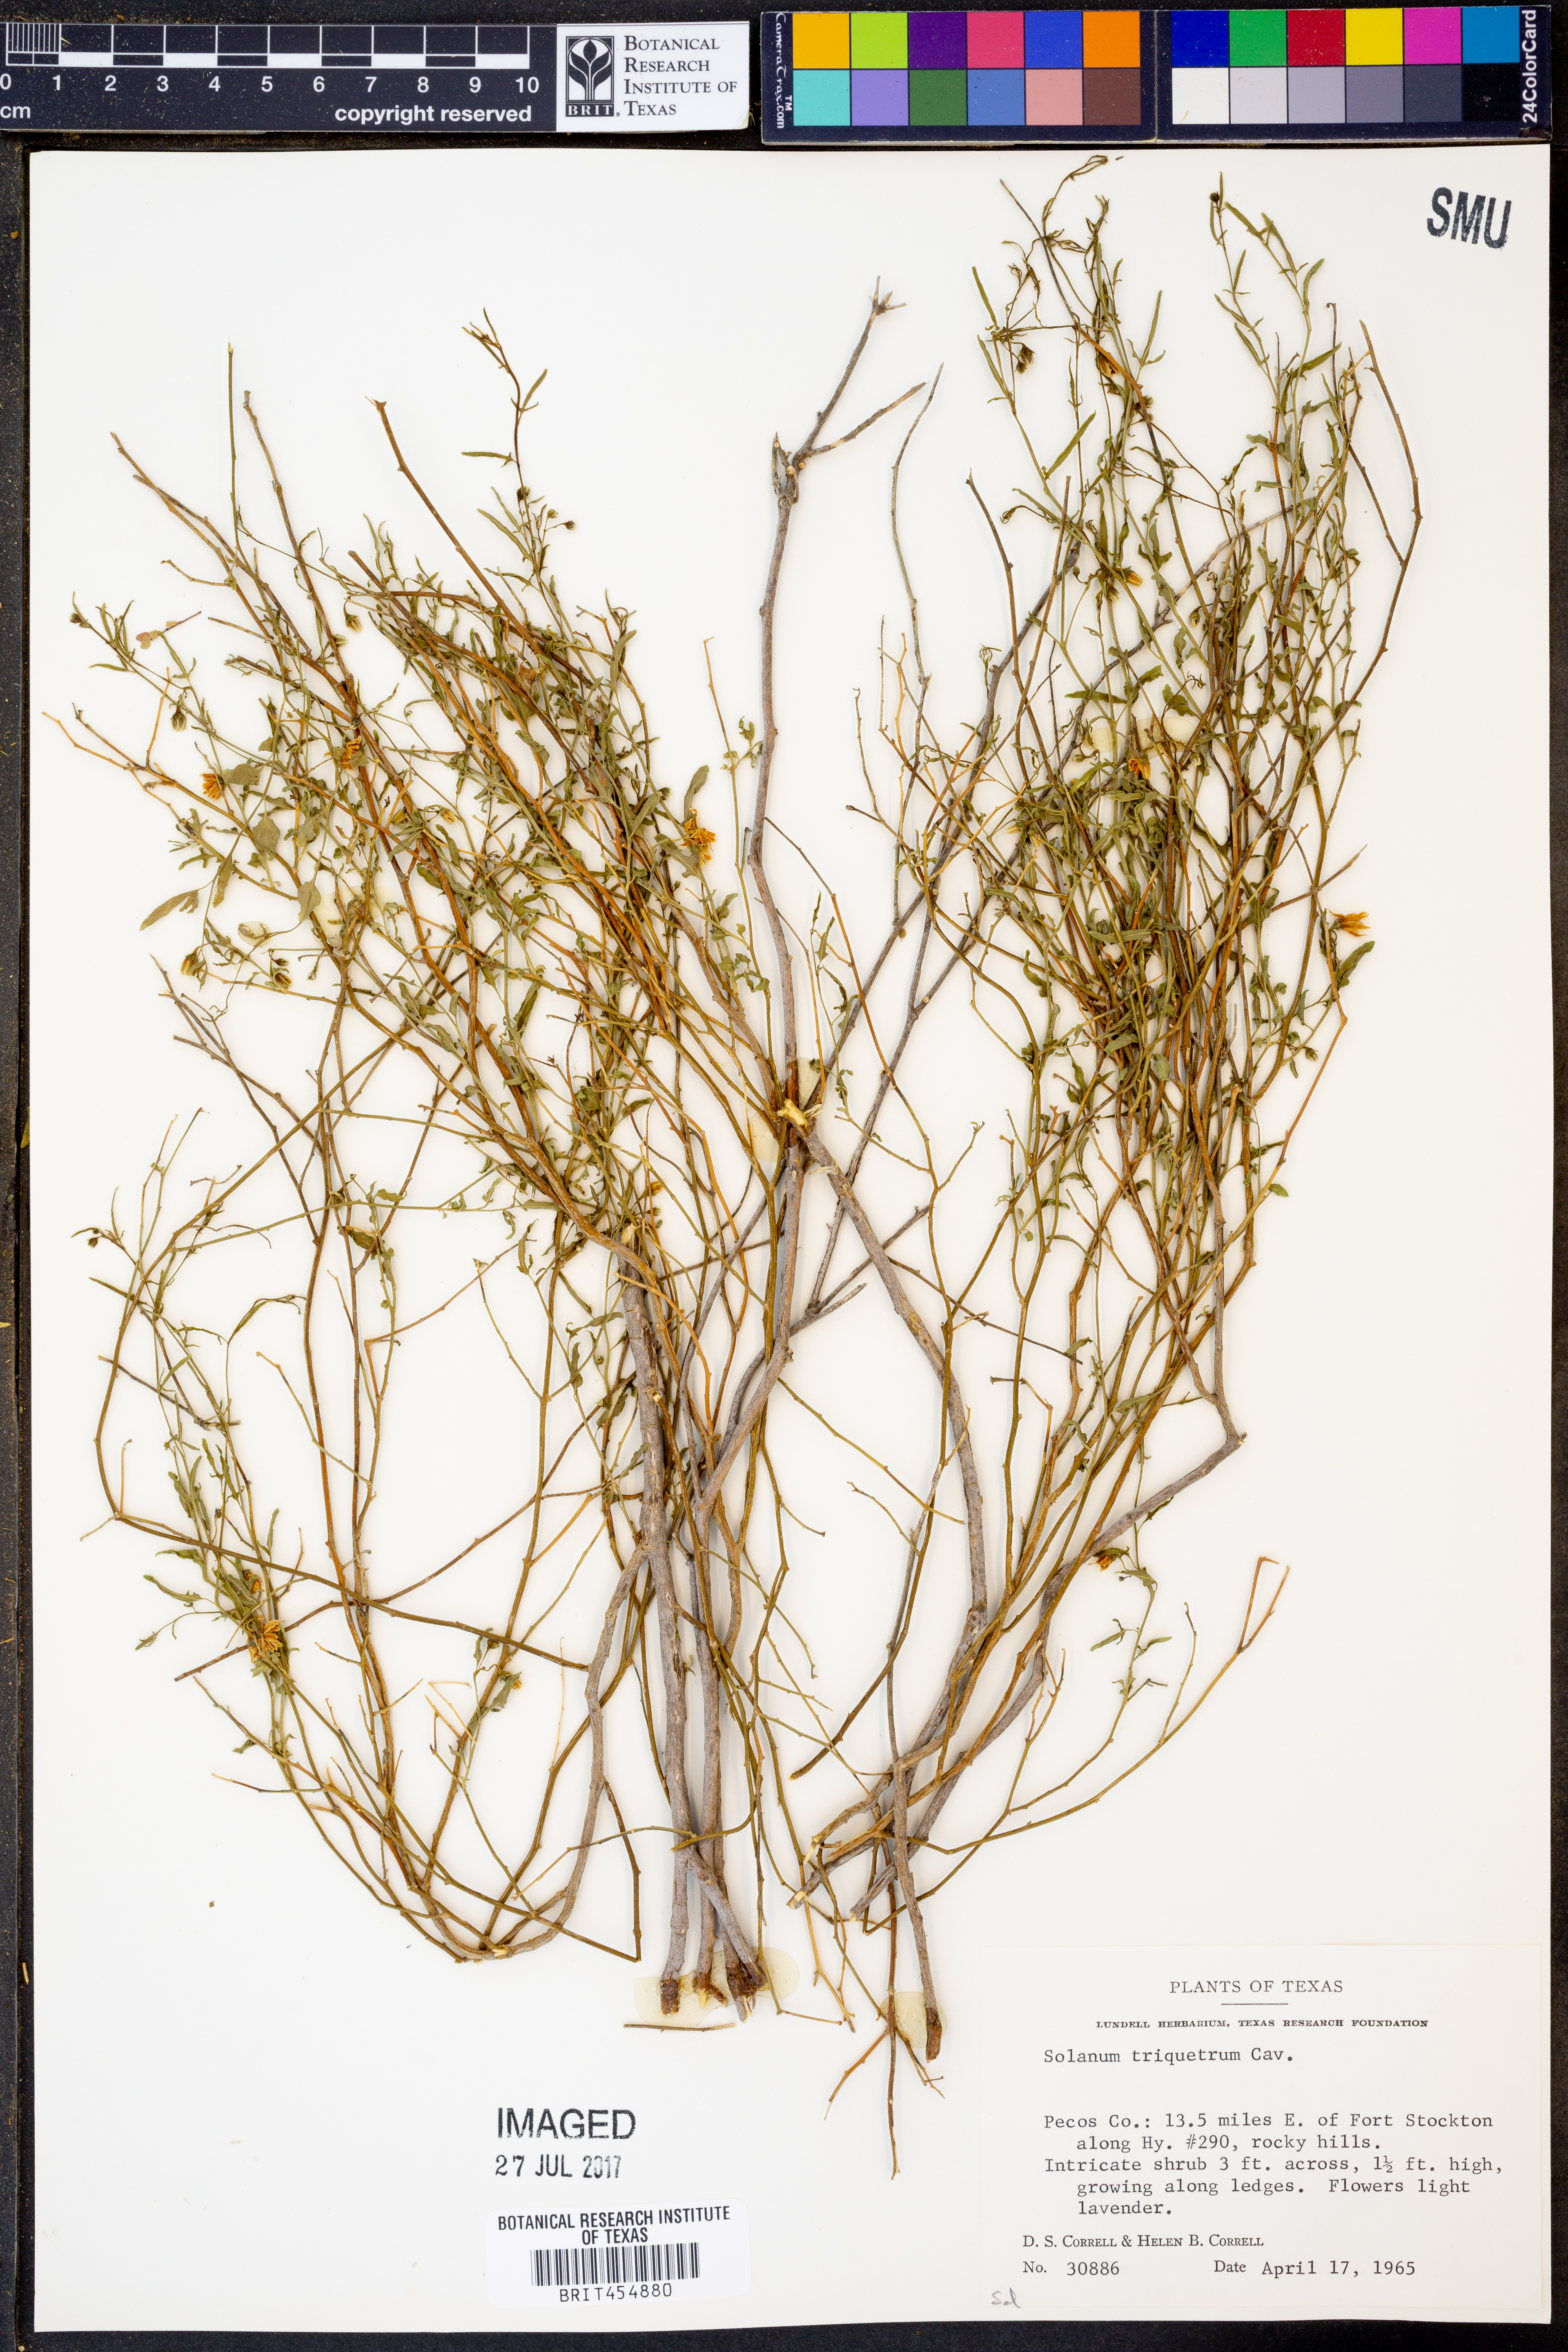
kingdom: Plantae
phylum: Tracheophyta
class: Magnoliopsida
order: Solanales
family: Solanaceae
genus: Solanum
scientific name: Solanum triquetrum
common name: Texas nightshade
